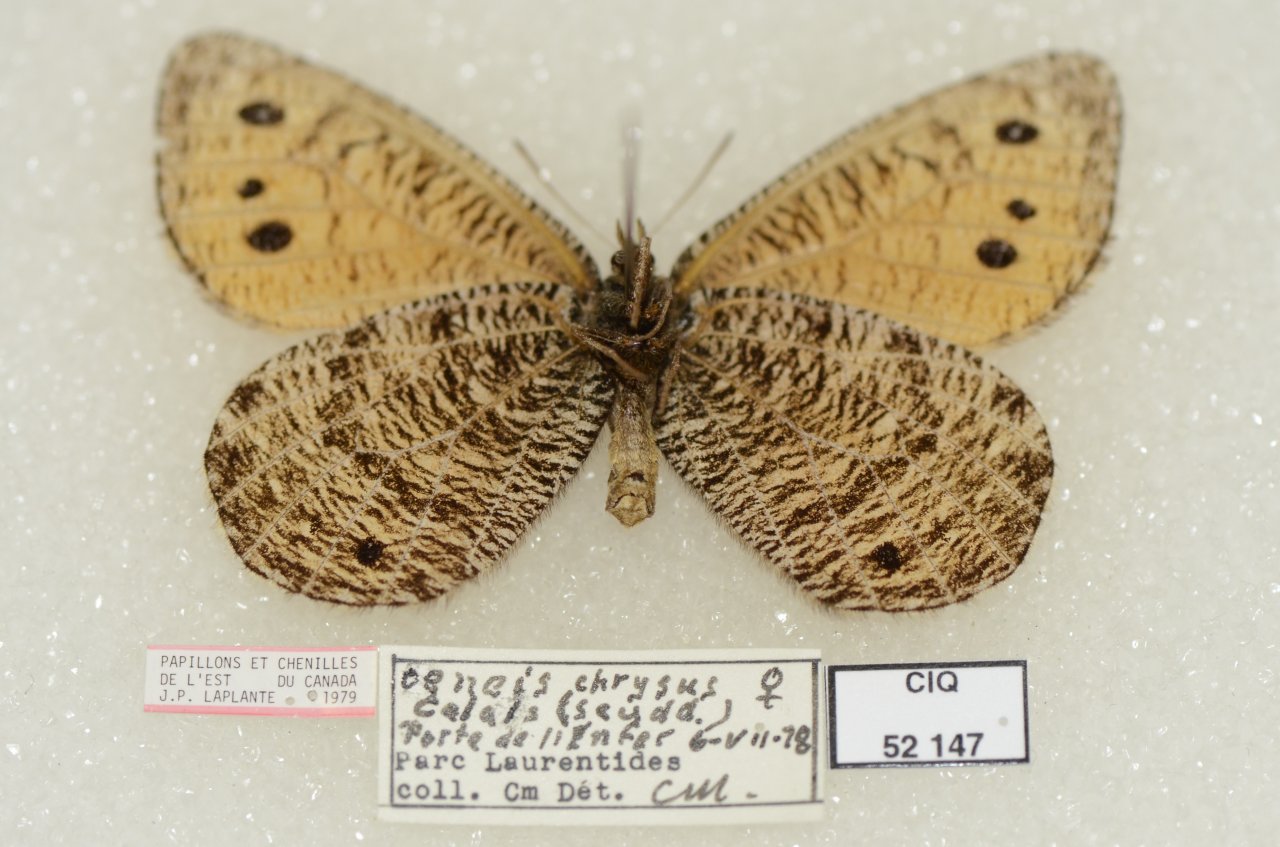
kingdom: Animalia
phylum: Arthropoda
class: Insecta
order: Lepidoptera
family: Nymphalidae
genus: Oeneis
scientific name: Oeneis chryxus
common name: Chryxus Arctic
